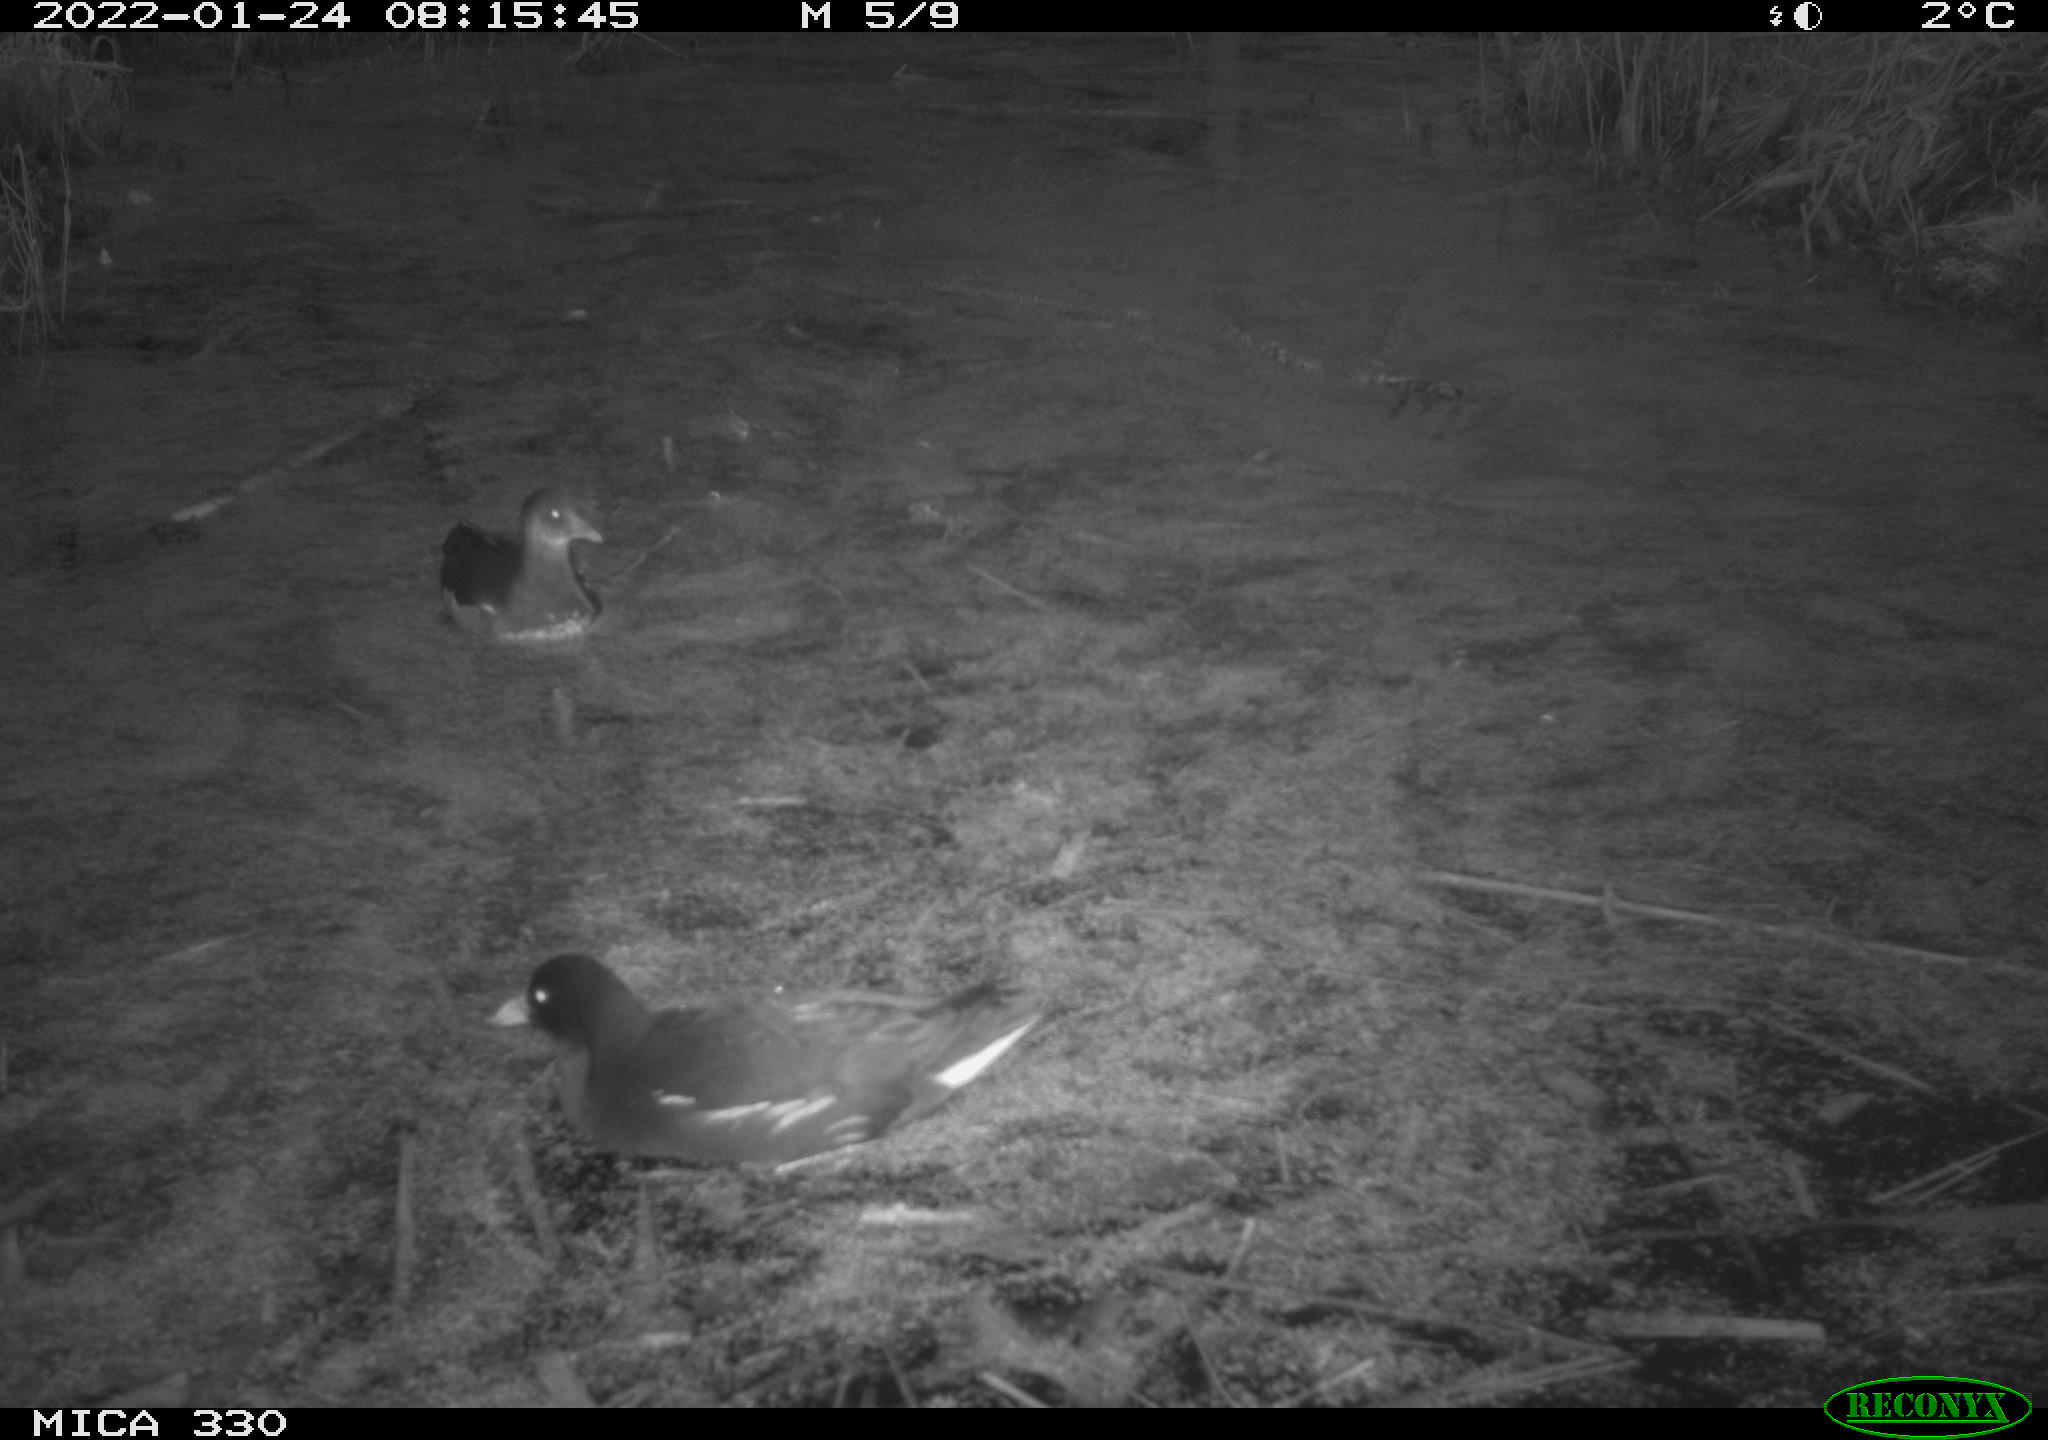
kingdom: Animalia
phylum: Chordata
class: Aves
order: Gruiformes
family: Rallidae
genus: Gallinula
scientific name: Gallinula chloropus
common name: Common moorhen
